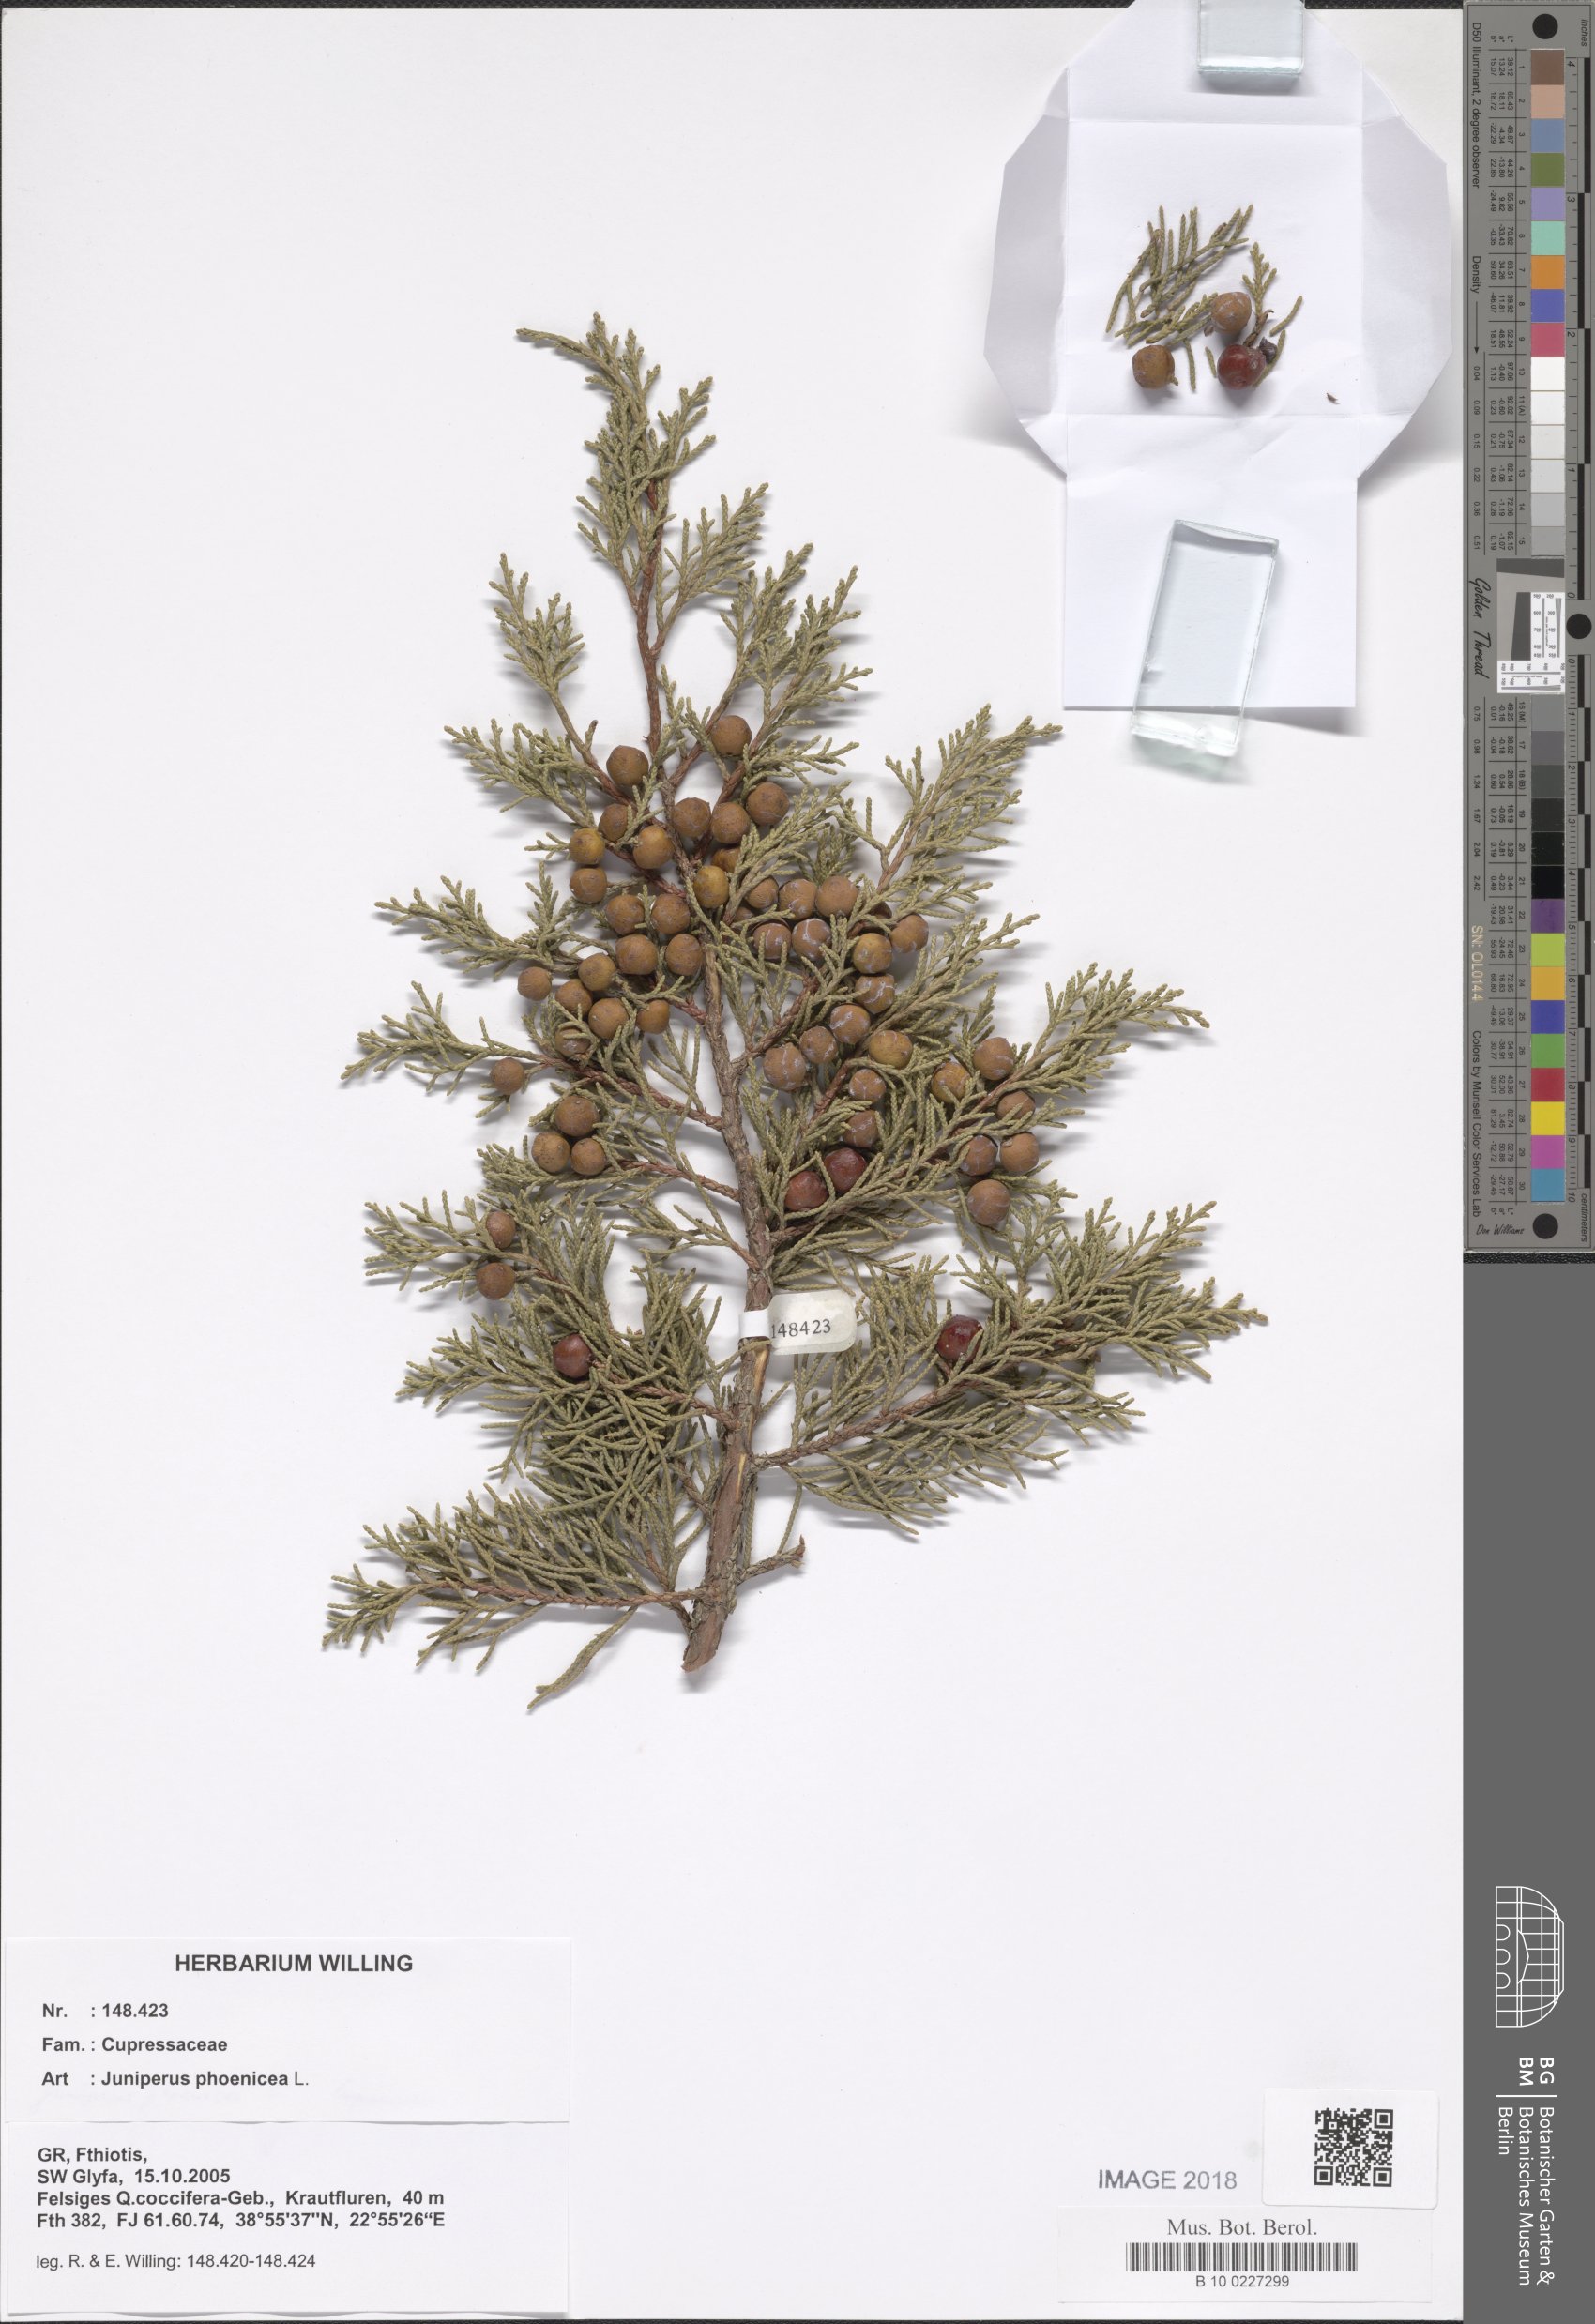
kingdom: Plantae
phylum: Tracheophyta
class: Pinopsida
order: Pinales
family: Cupressaceae
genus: Juniperus
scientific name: Juniperus phoenicea
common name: Phoenician juniper
